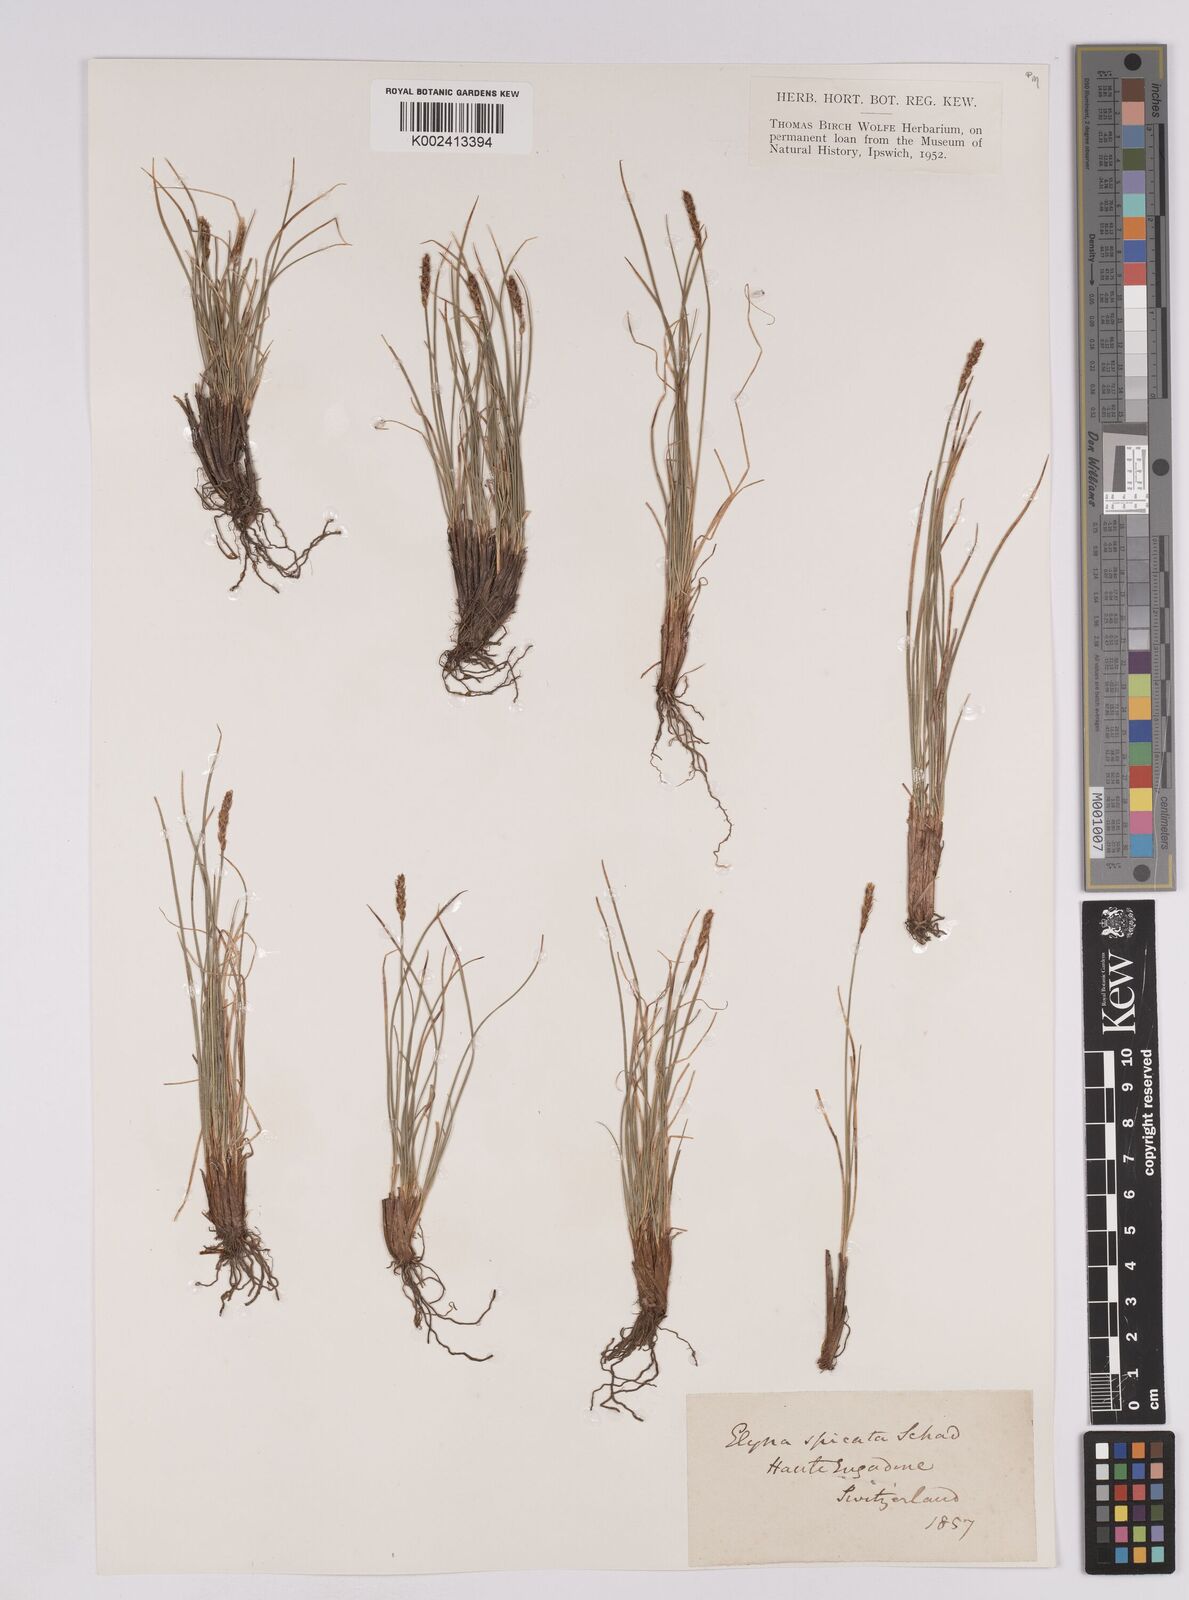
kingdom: Plantae
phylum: Tracheophyta
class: Liliopsida
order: Poales
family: Cyperaceae
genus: Carex
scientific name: Carex myosuroides
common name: Bellard's bog sedge
